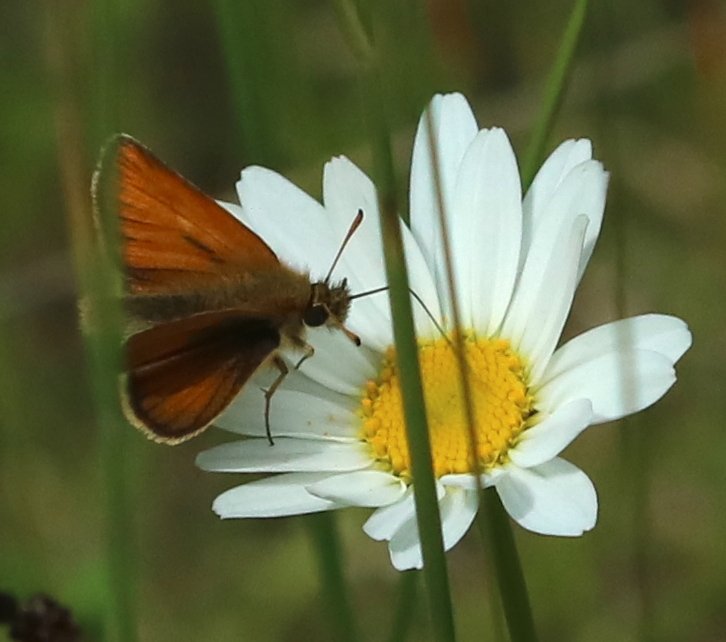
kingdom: Animalia
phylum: Arthropoda
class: Insecta
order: Lepidoptera
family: Hesperiidae
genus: Thymelicus
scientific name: Thymelicus lineola
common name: European Skipper
